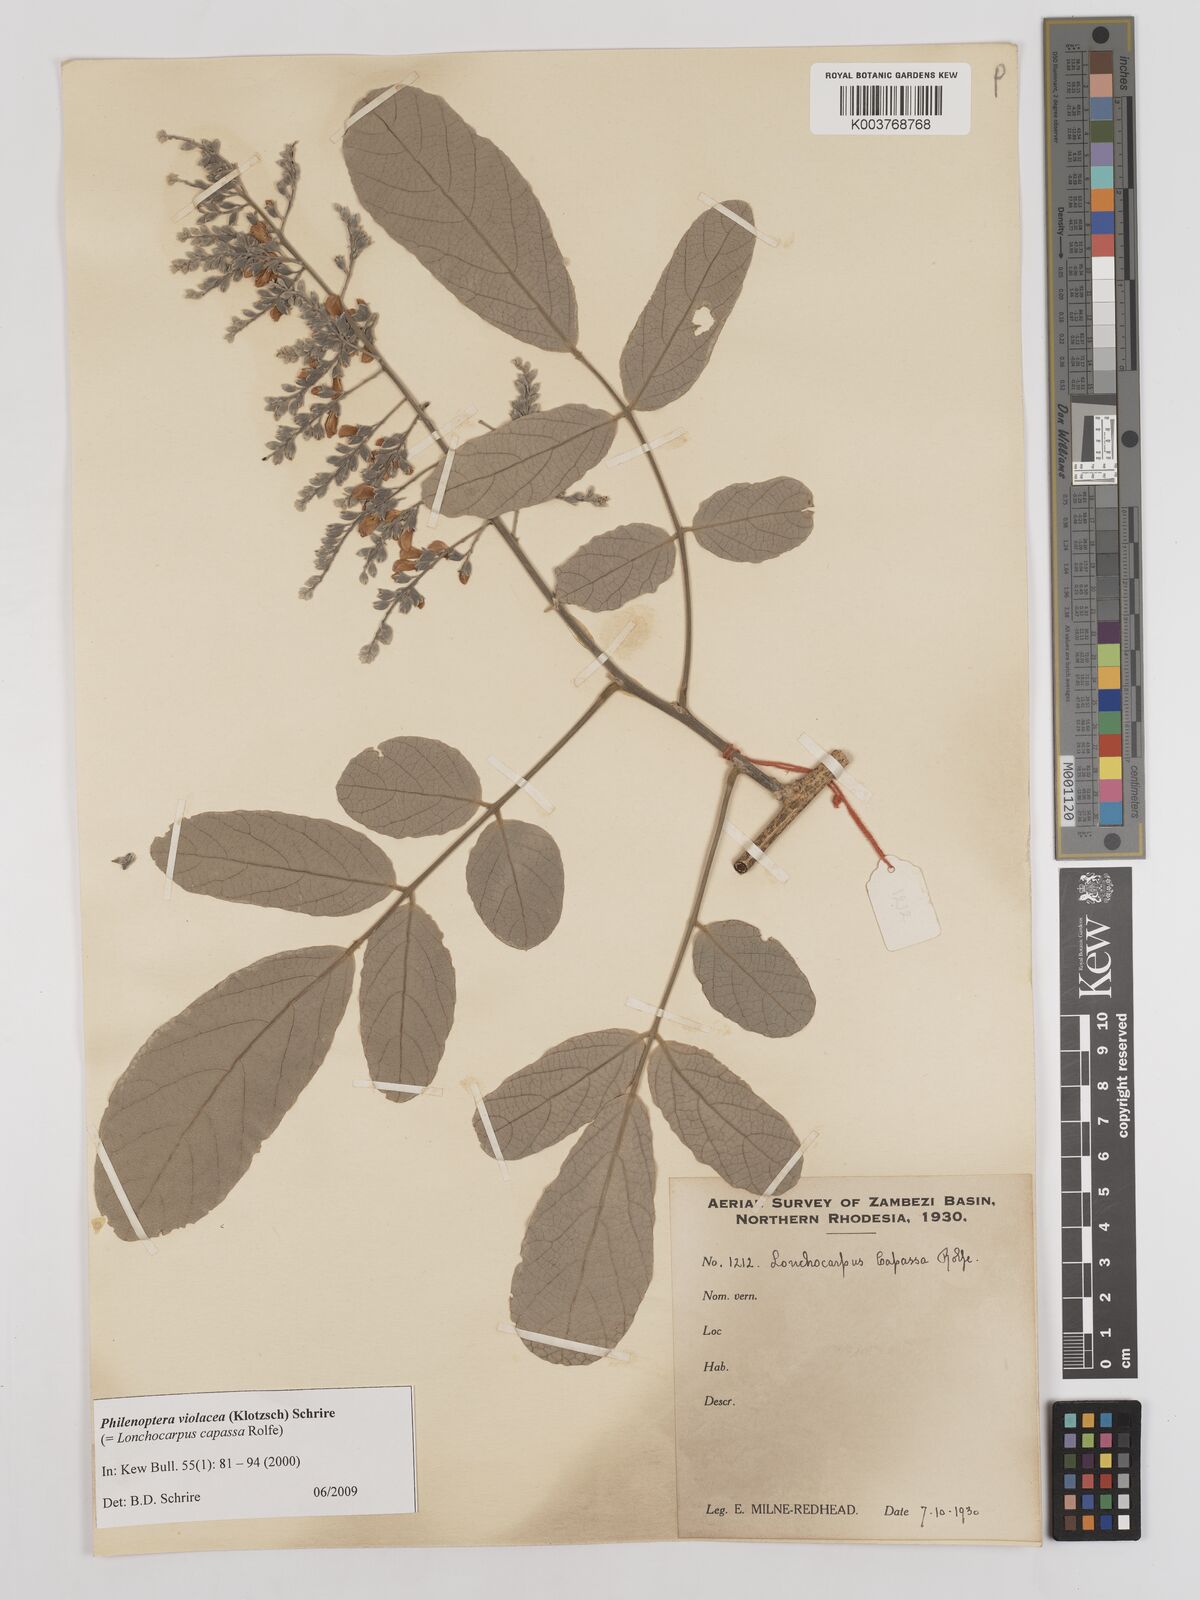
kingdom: Plantae
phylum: Tracheophyta
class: Magnoliopsida
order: Fabales
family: Fabaceae
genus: Philenoptera
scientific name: Philenoptera violacea
